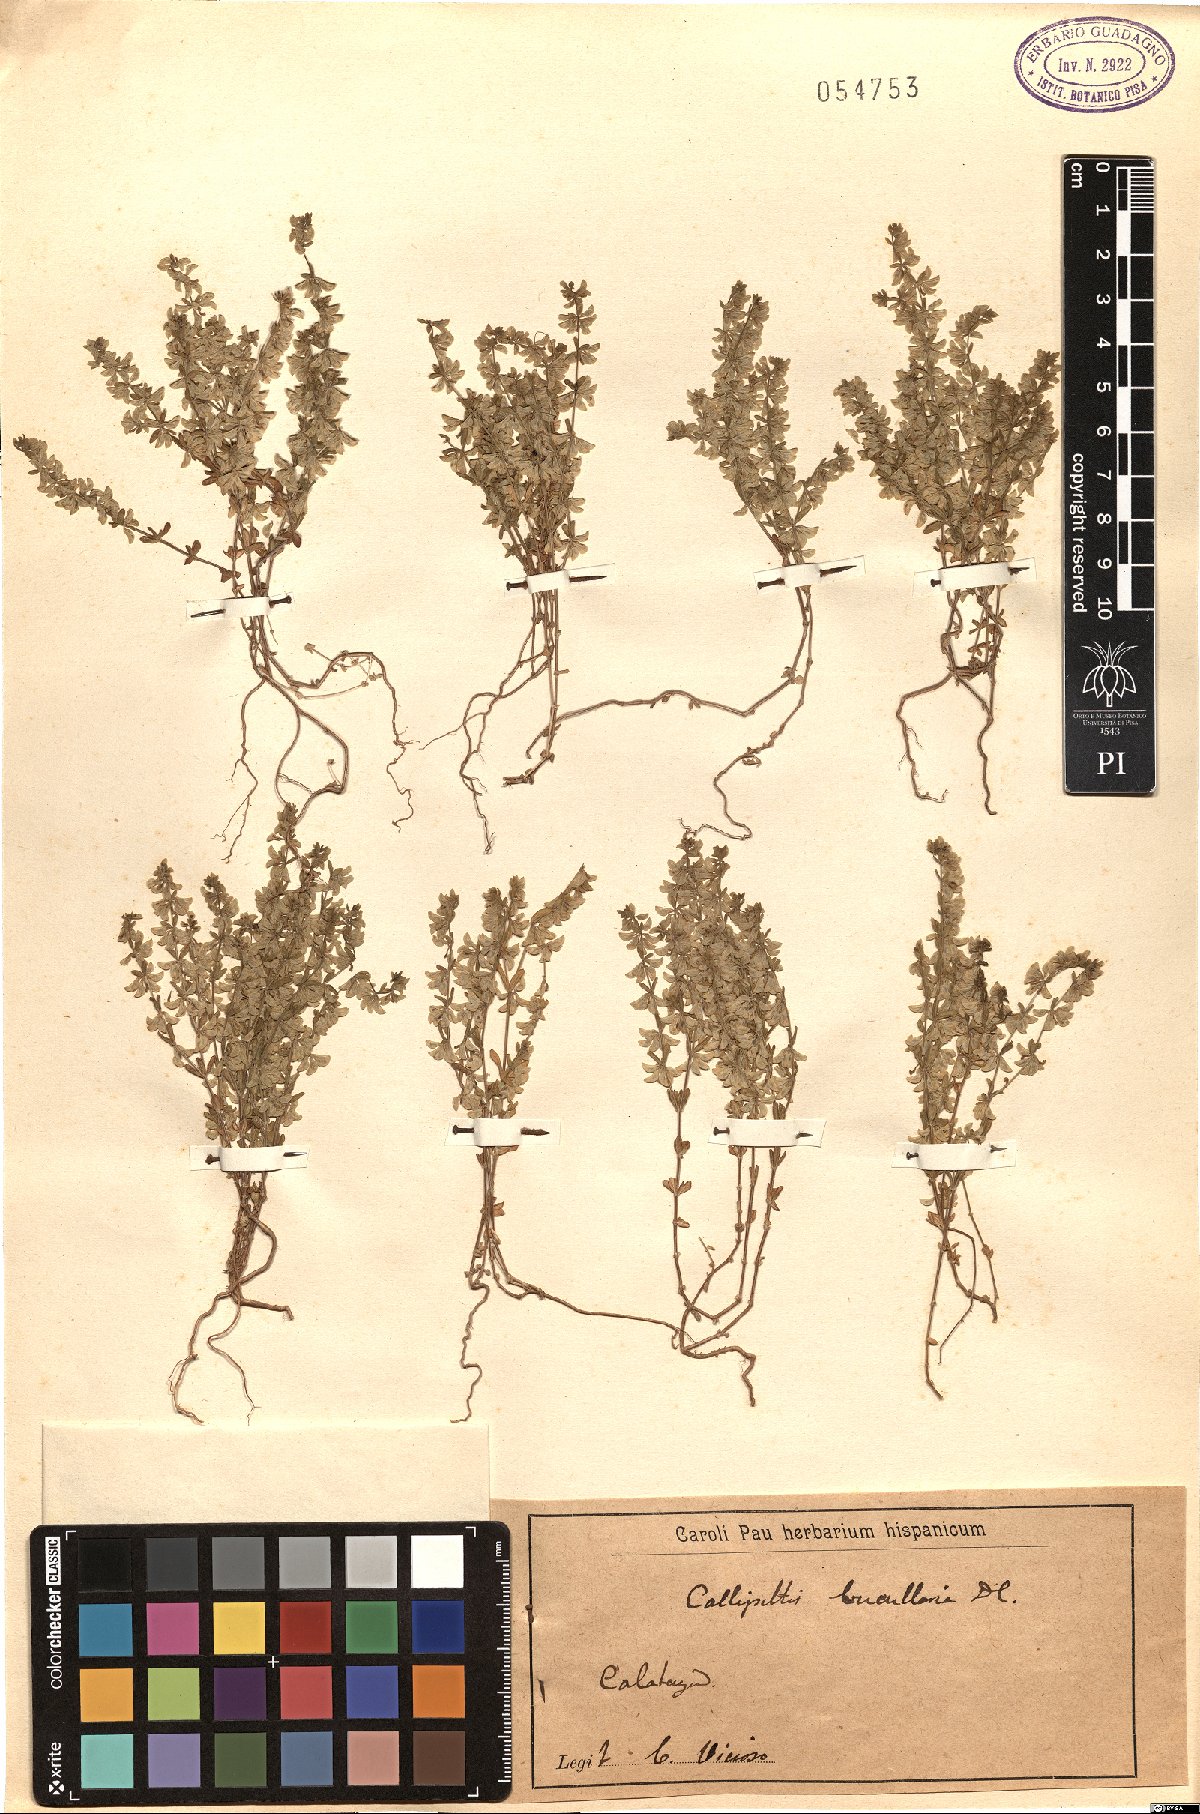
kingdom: Plantae
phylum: Tracheophyta
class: Magnoliopsida
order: Gentianales
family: Rubiaceae
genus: Callipeltis
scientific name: Callipeltis cucullaris
